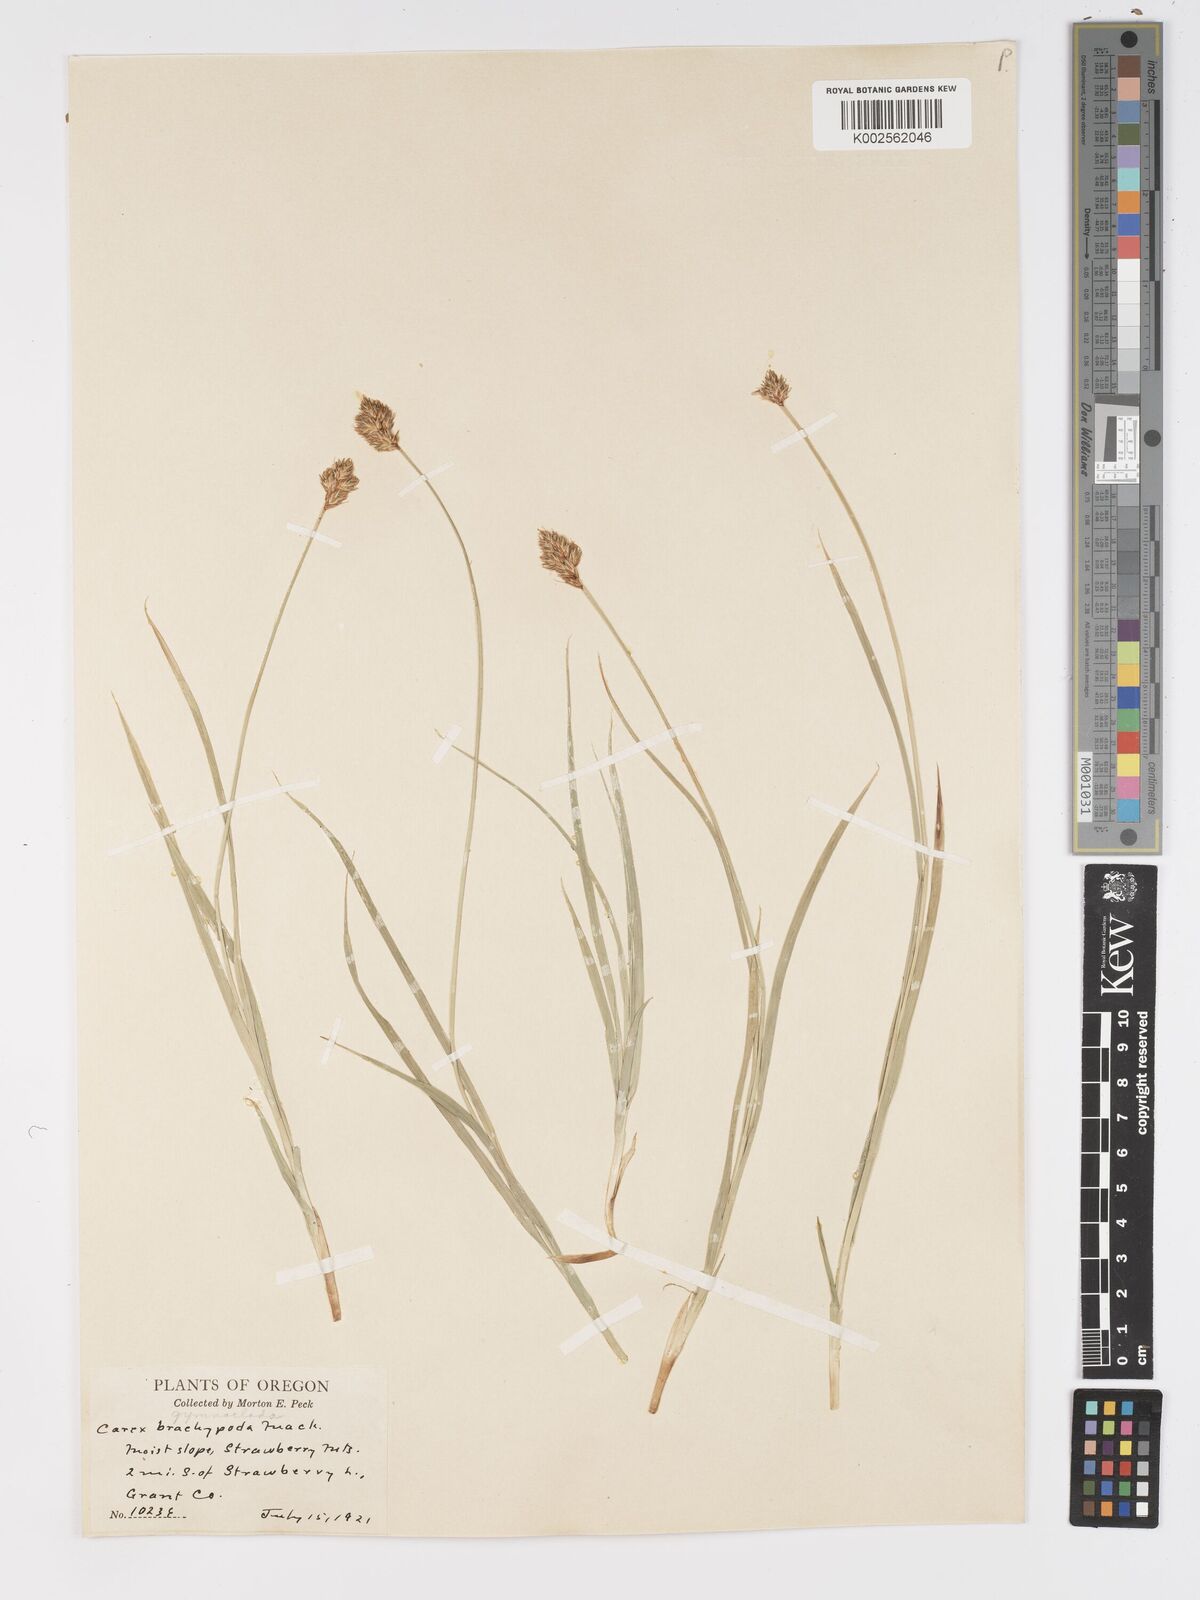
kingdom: Plantae
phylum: Tracheophyta
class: Liliopsida
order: Poales
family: Cyperaceae
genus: Carex
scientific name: Carex scopulorum
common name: Holm's rocky mountain sedge
